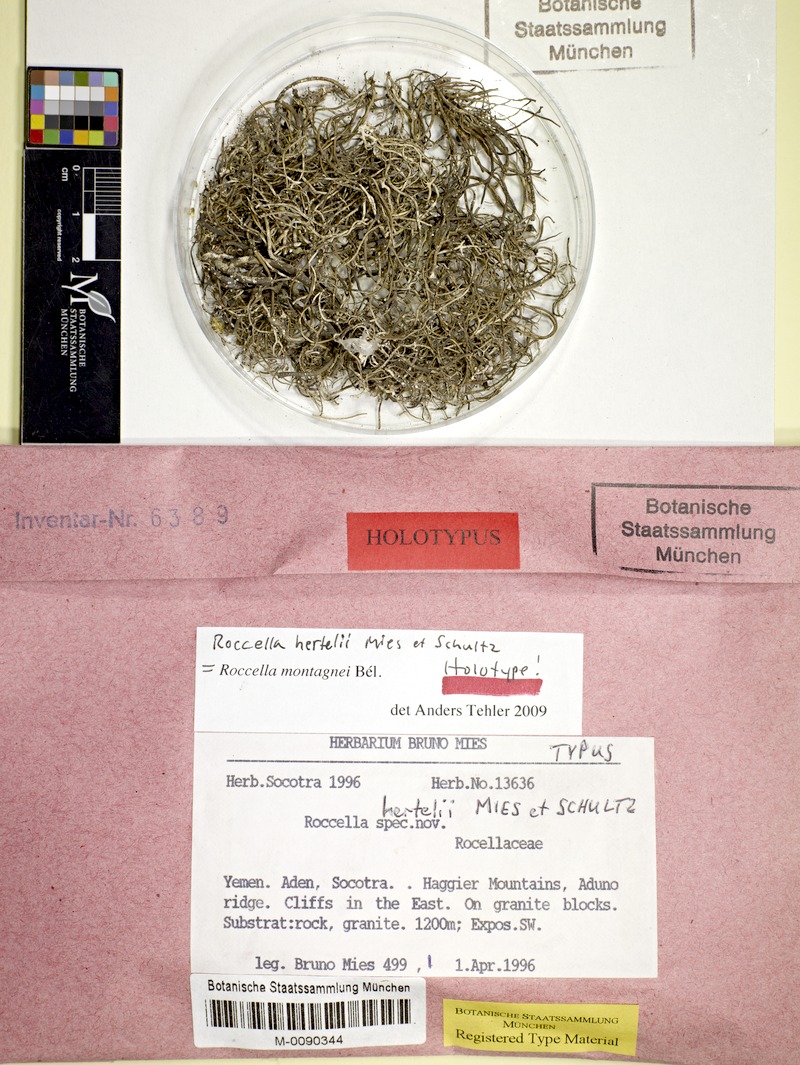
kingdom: Fungi
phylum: Ascomycota
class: Arthoniomycetes
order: Arthoniales
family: Roccellaceae
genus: Roccella
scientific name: Roccella montagnei
